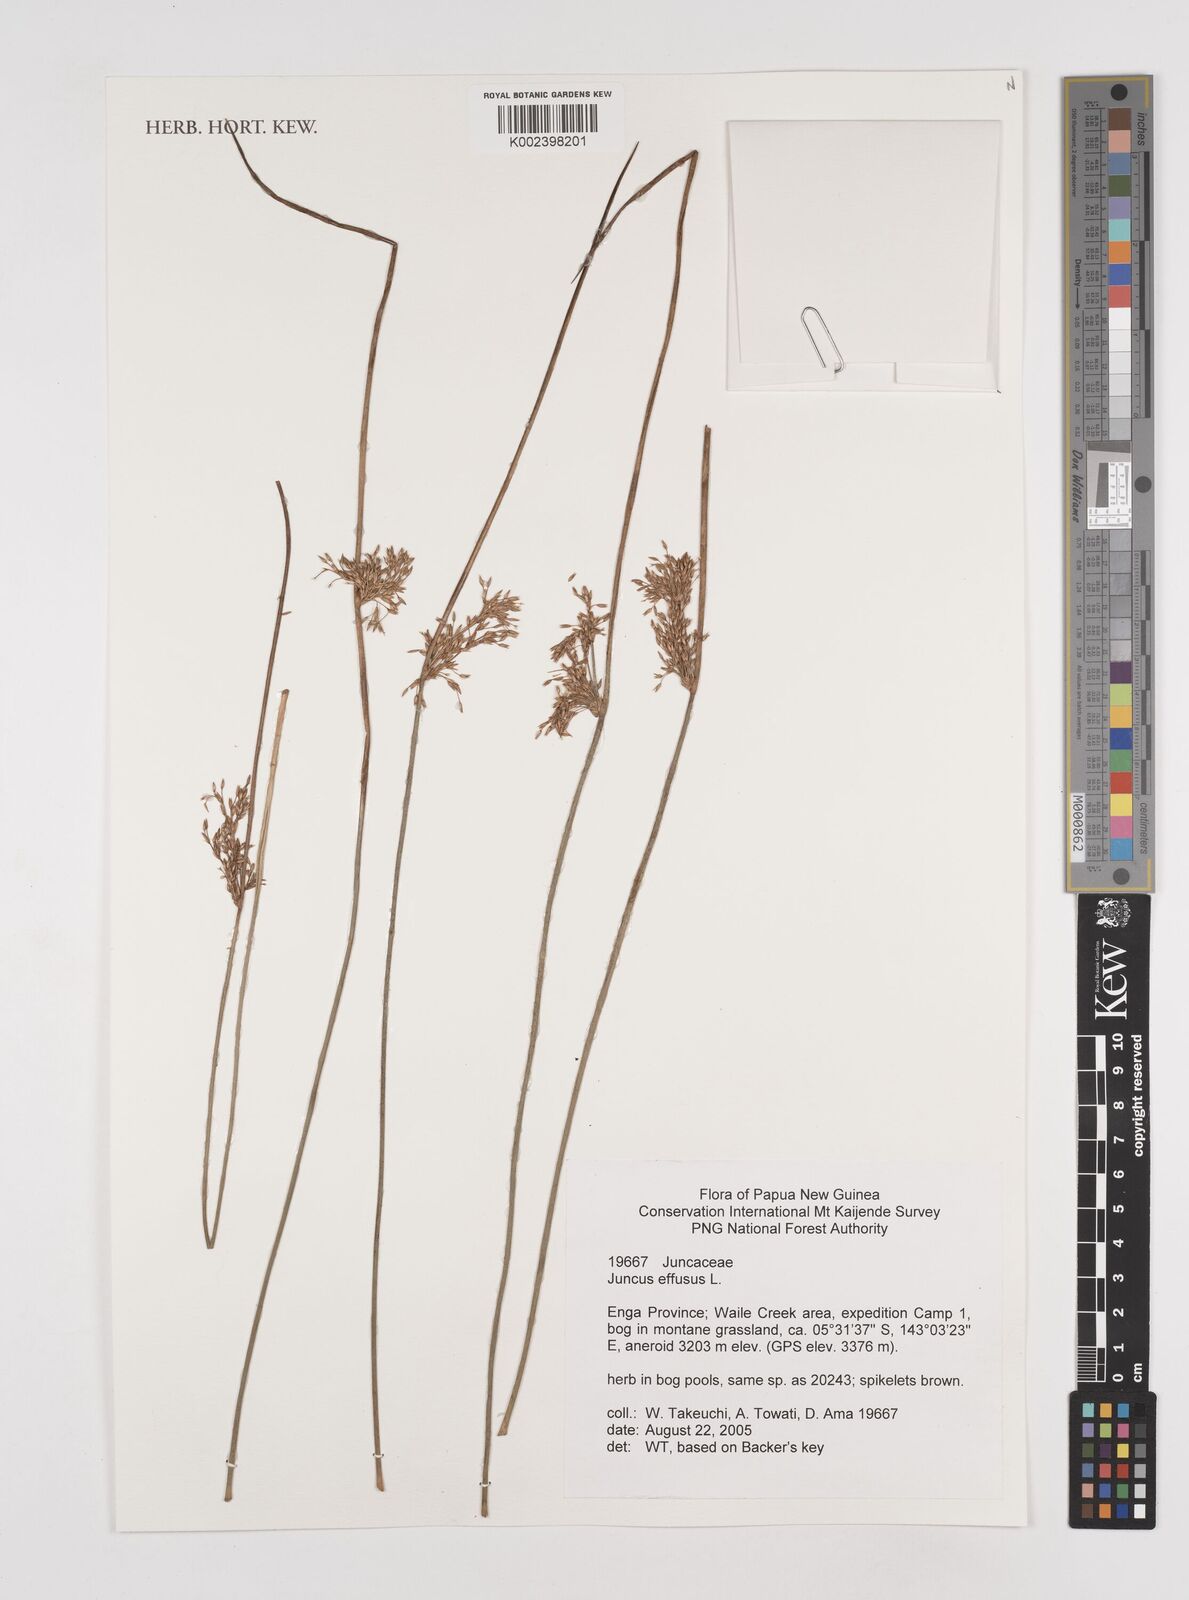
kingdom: Plantae
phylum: Tracheophyta
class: Liliopsida
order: Poales
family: Juncaceae
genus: Juncus
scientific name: Juncus decipiens
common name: Lamp rush
